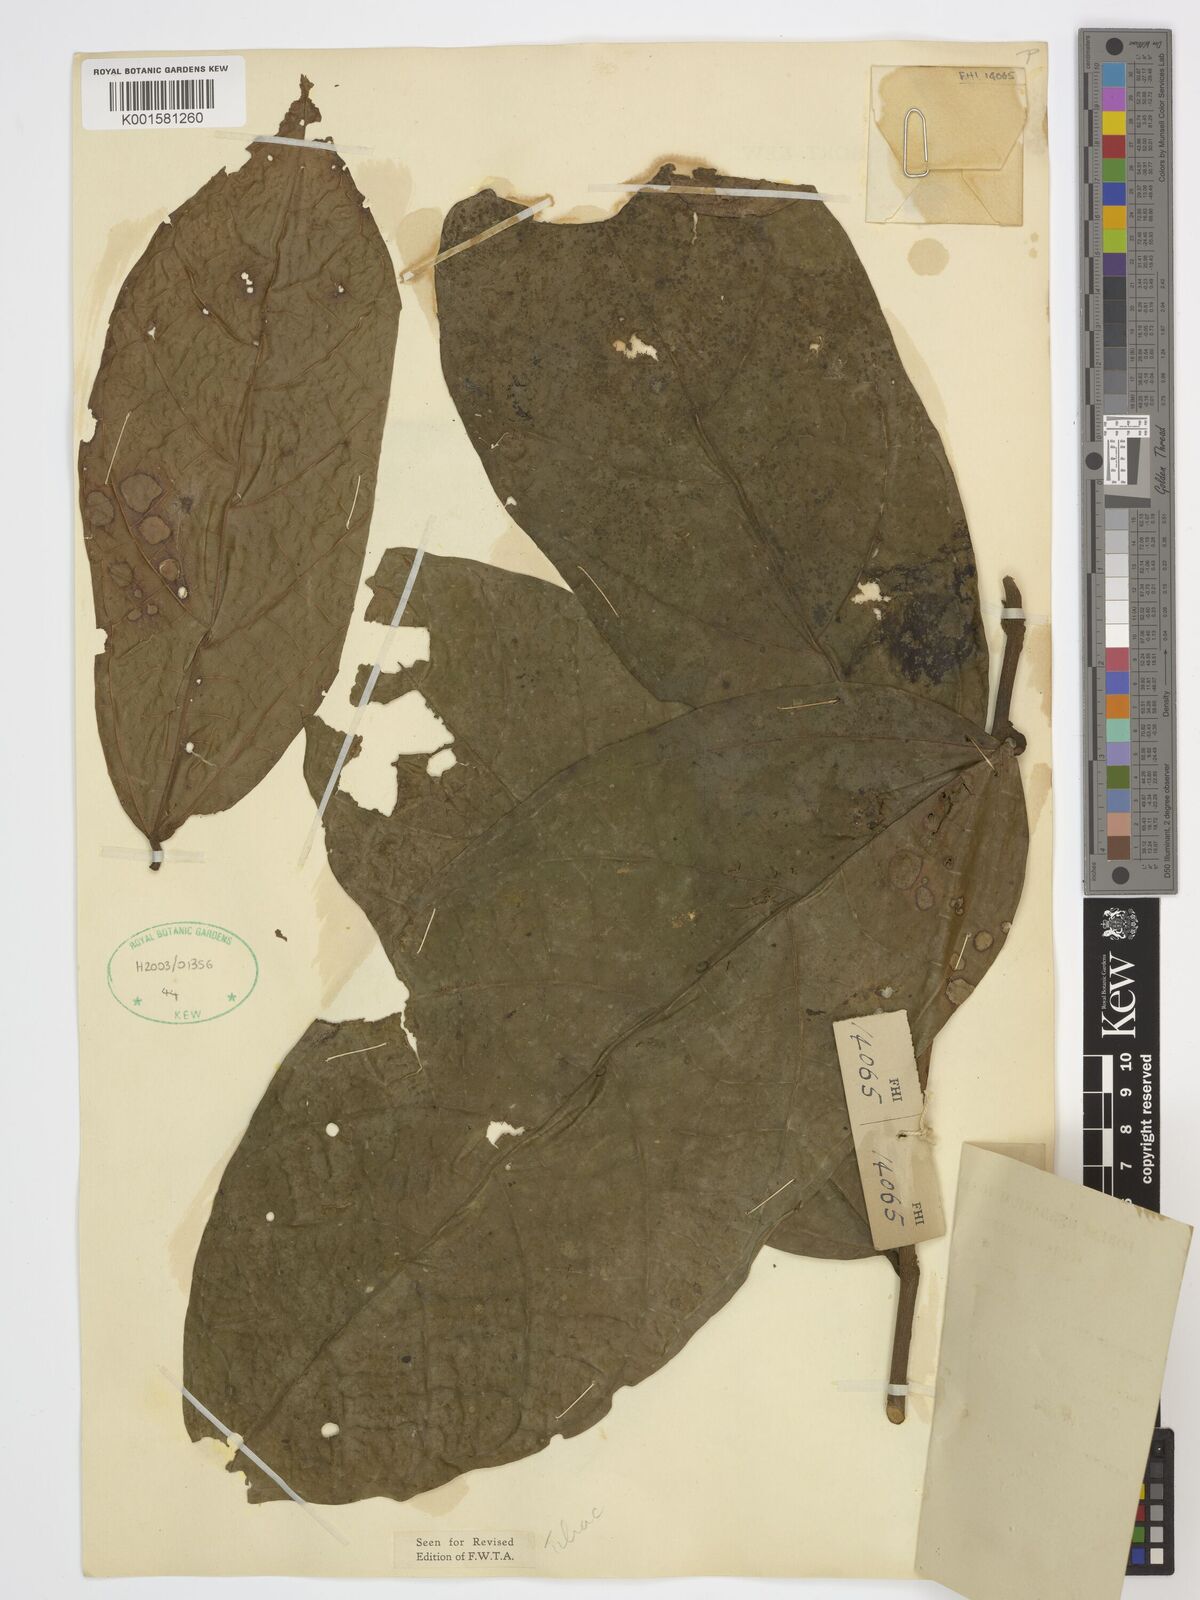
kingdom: Plantae
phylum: Tracheophyta
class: Magnoliopsida
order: Malvales
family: Malvaceae
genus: Microcos
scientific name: Microcos coriacea
